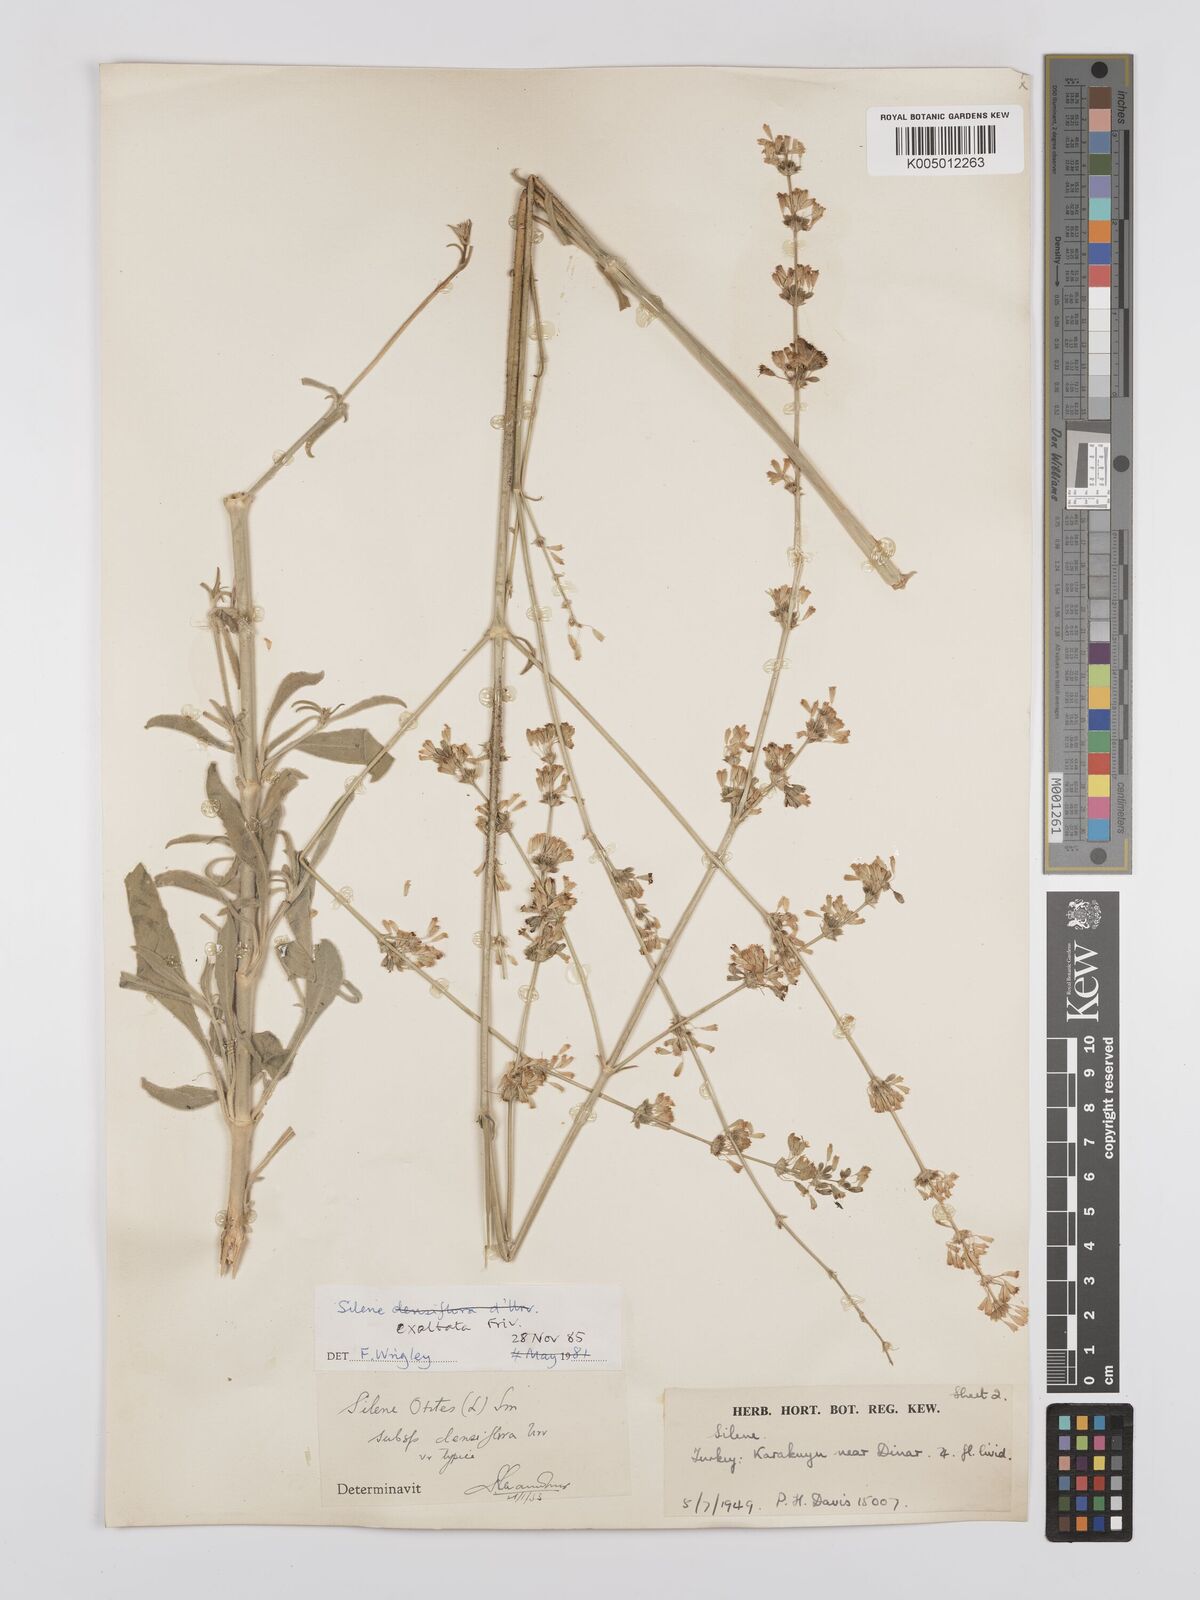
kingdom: Plantae
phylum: Tracheophyta
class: Magnoliopsida
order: Caryophyllales
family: Caryophyllaceae
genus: Silene
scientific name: Silene densiflora
